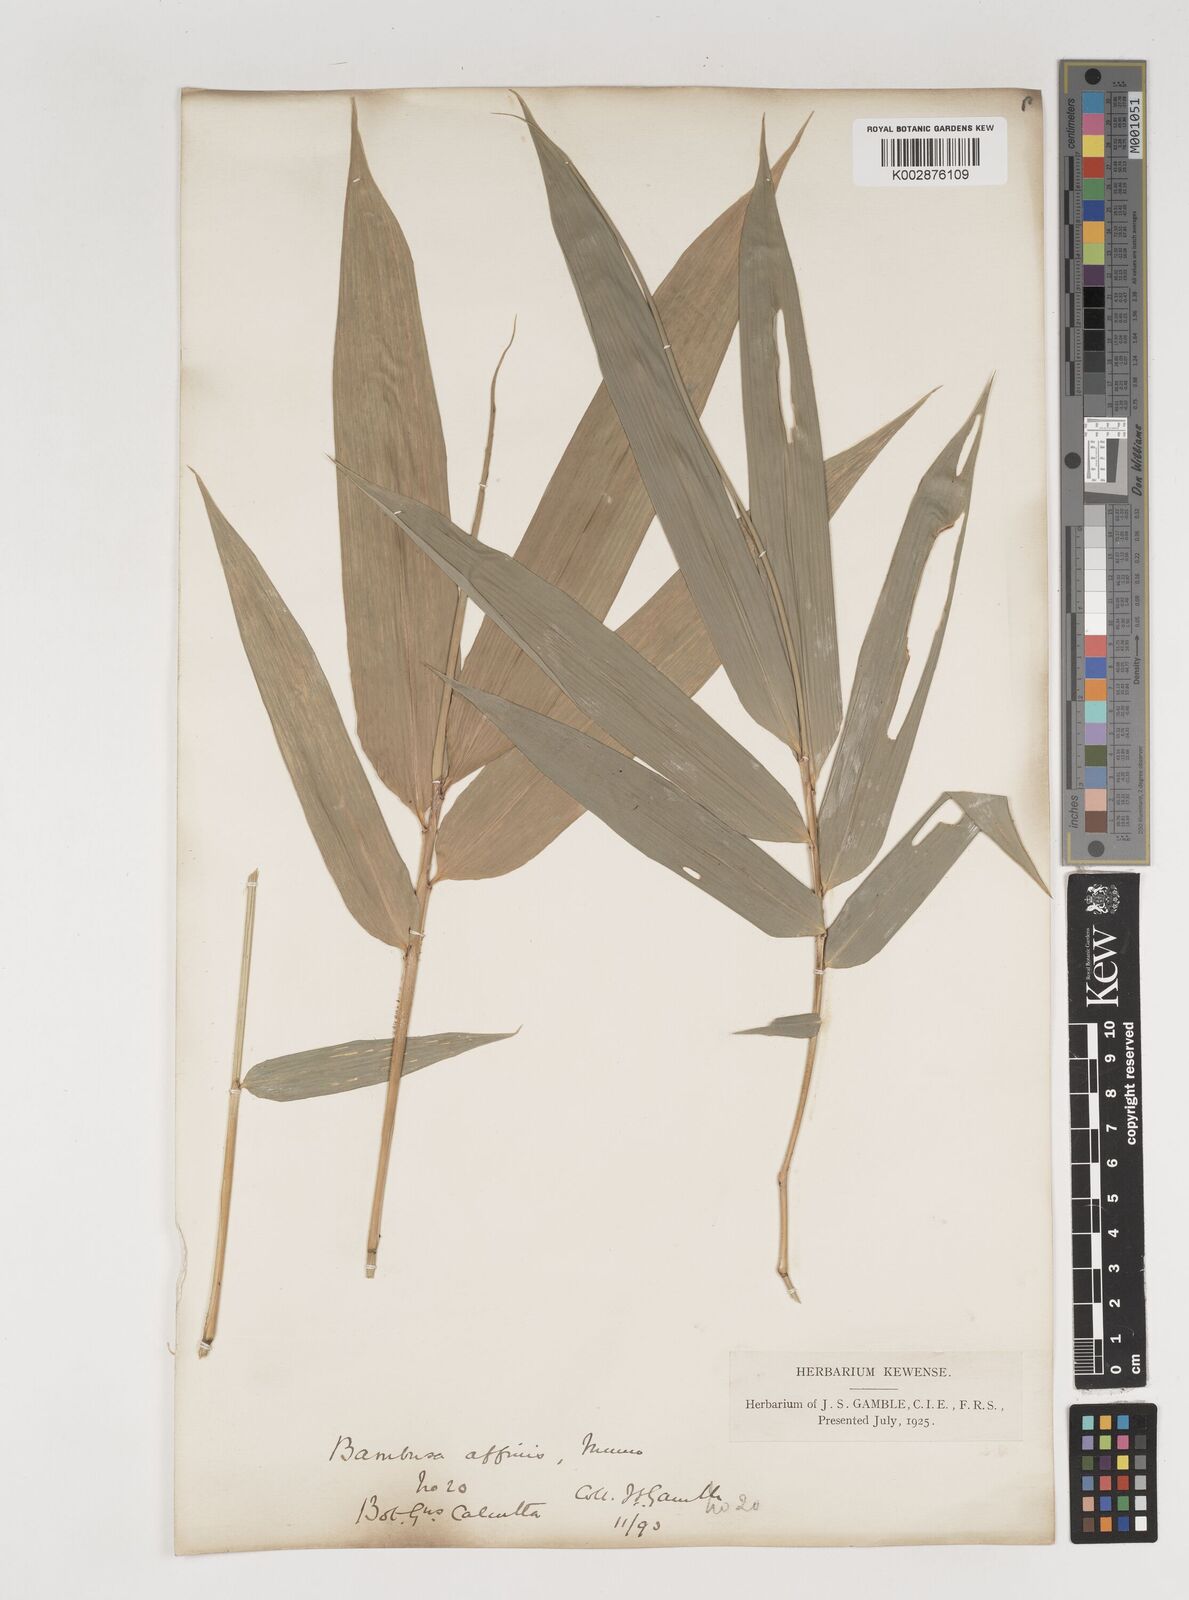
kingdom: Plantae
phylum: Tracheophyta
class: Liliopsida
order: Poales
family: Poaceae
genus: Bambusa
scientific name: Bambusa affinis
